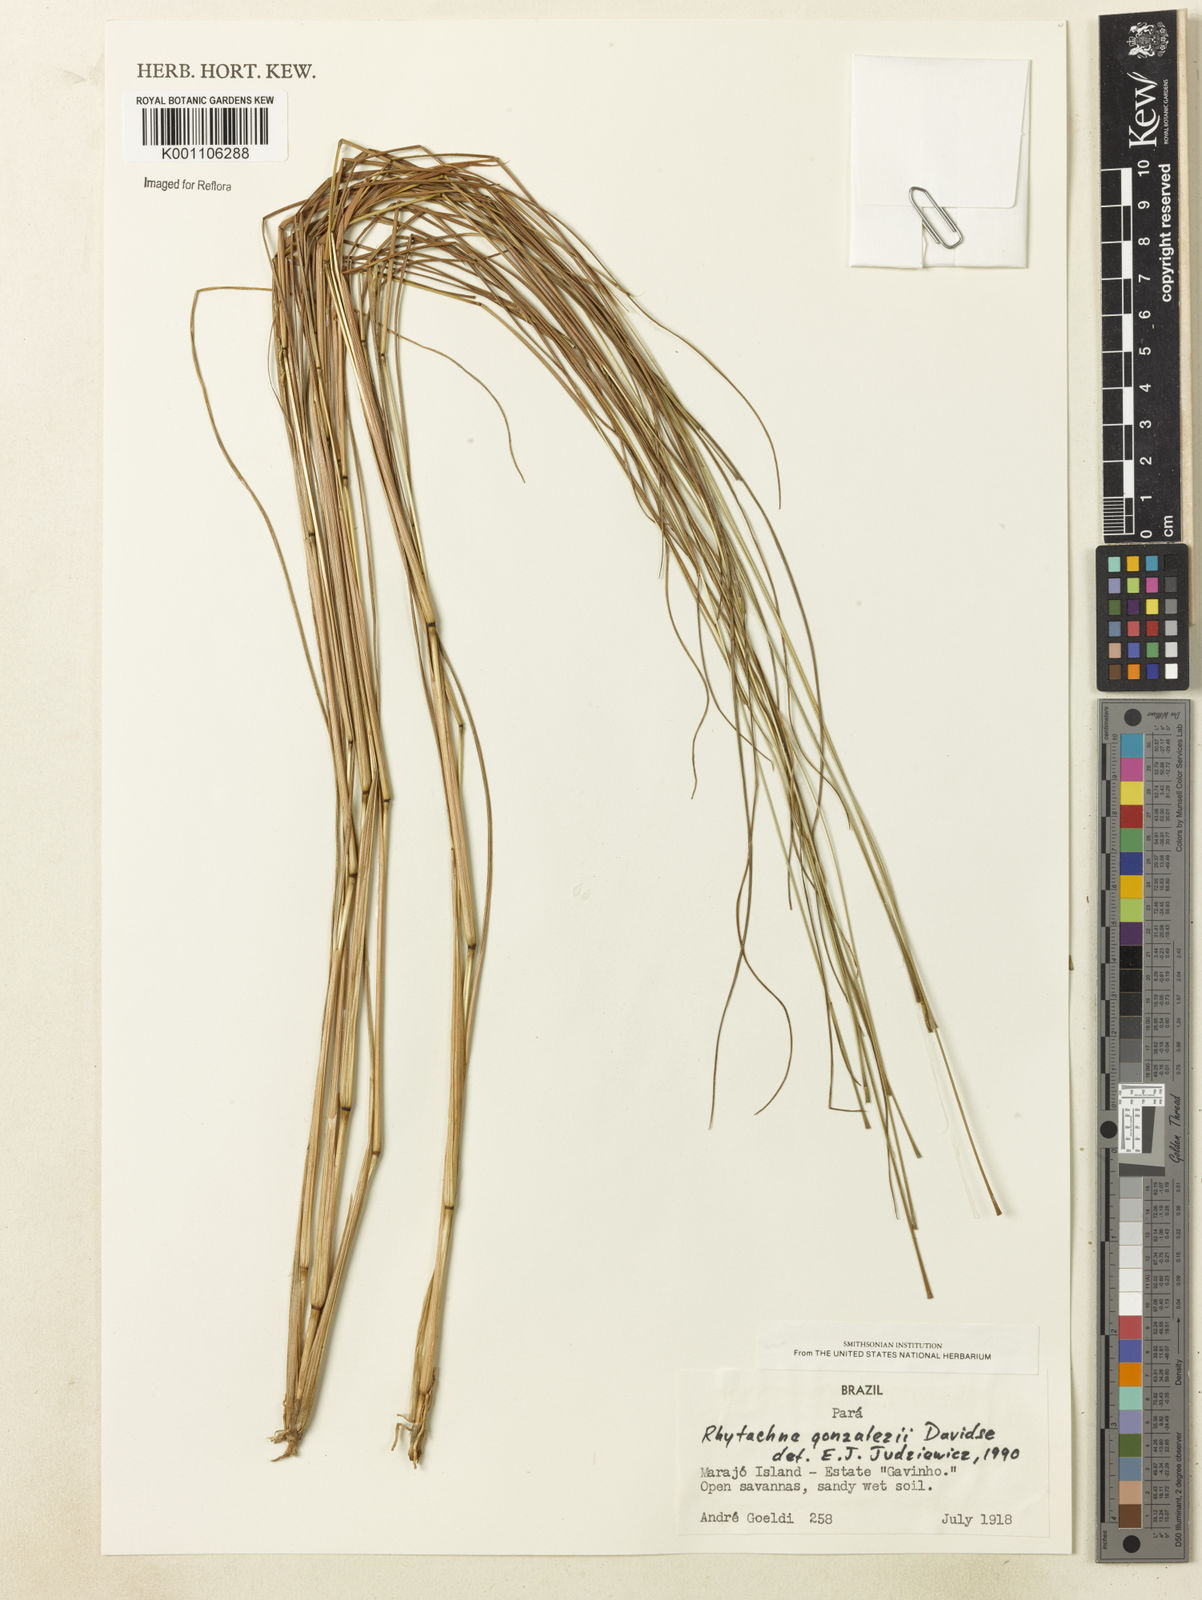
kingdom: Plantae
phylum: Tracheophyta
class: Liliopsida
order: Poales
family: Poaceae
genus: Rhytachne
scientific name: Rhytachne gonzalezii
